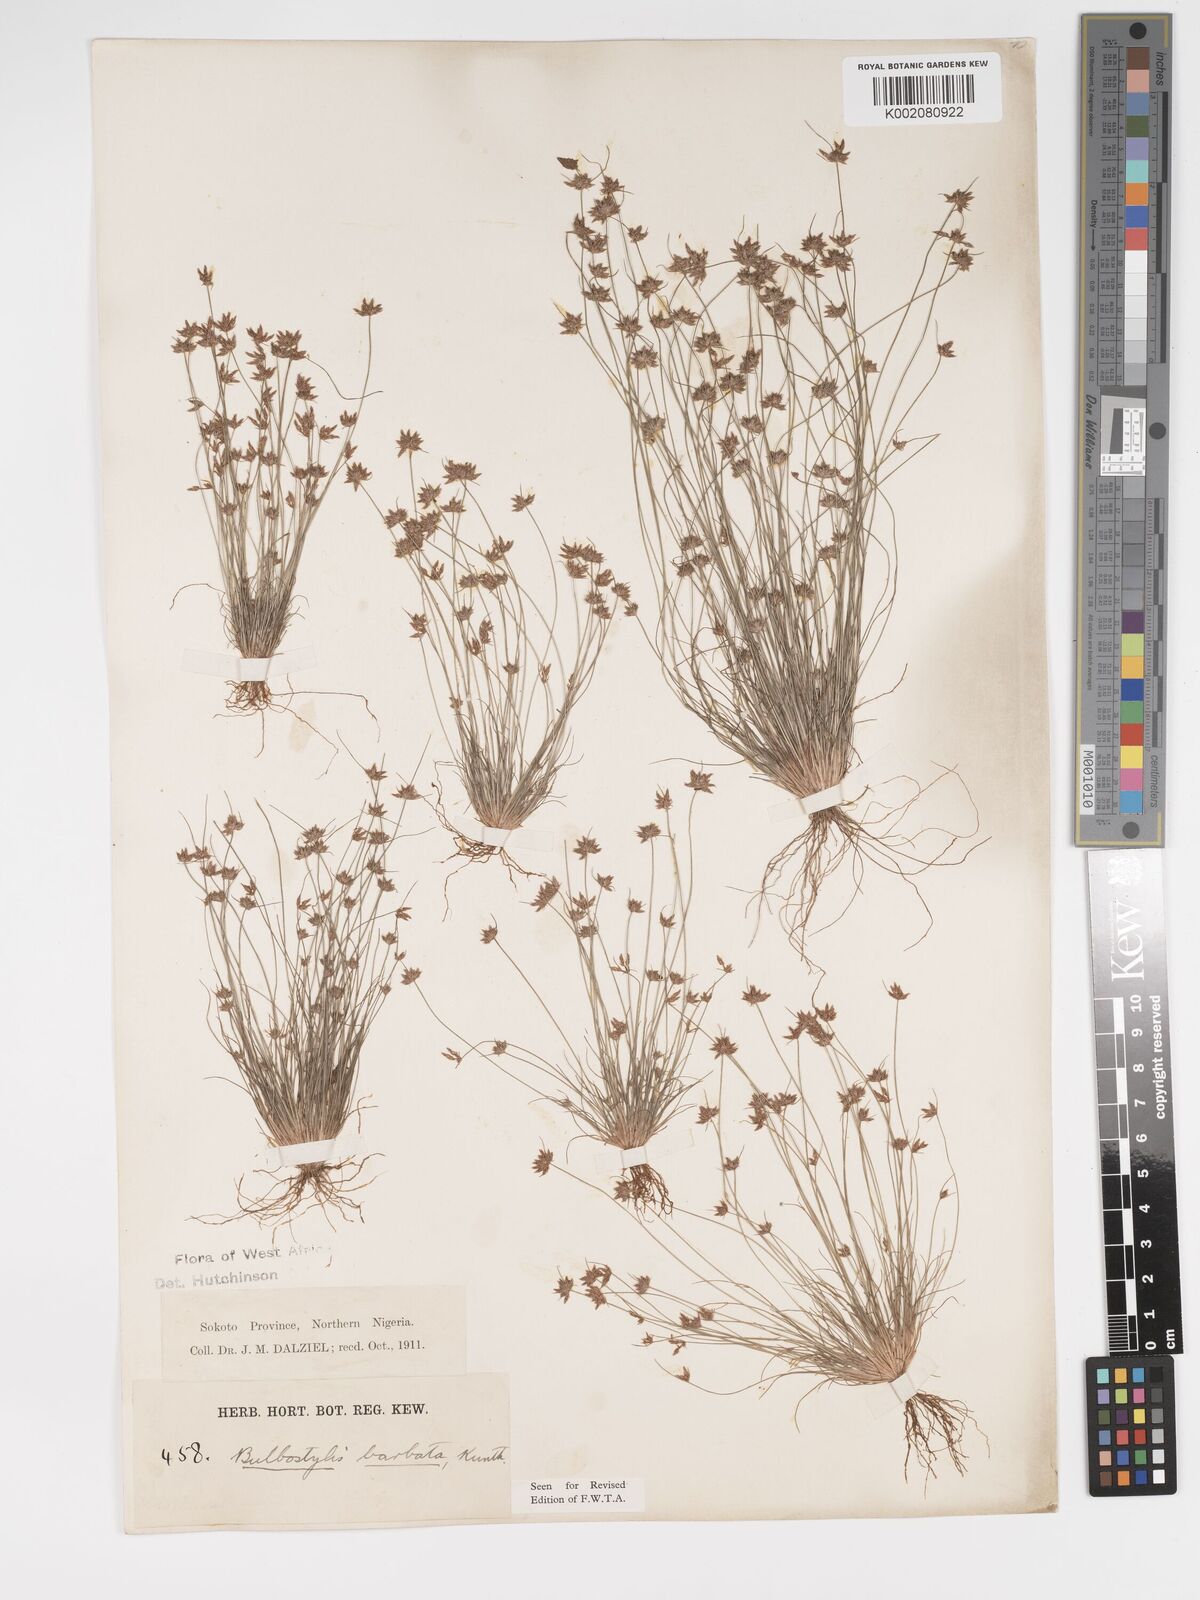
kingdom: Plantae
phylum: Tracheophyta
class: Liliopsida
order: Poales
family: Cyperaceae
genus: Bulbostylis
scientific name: Bulbostylis barbata
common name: Watergrass
